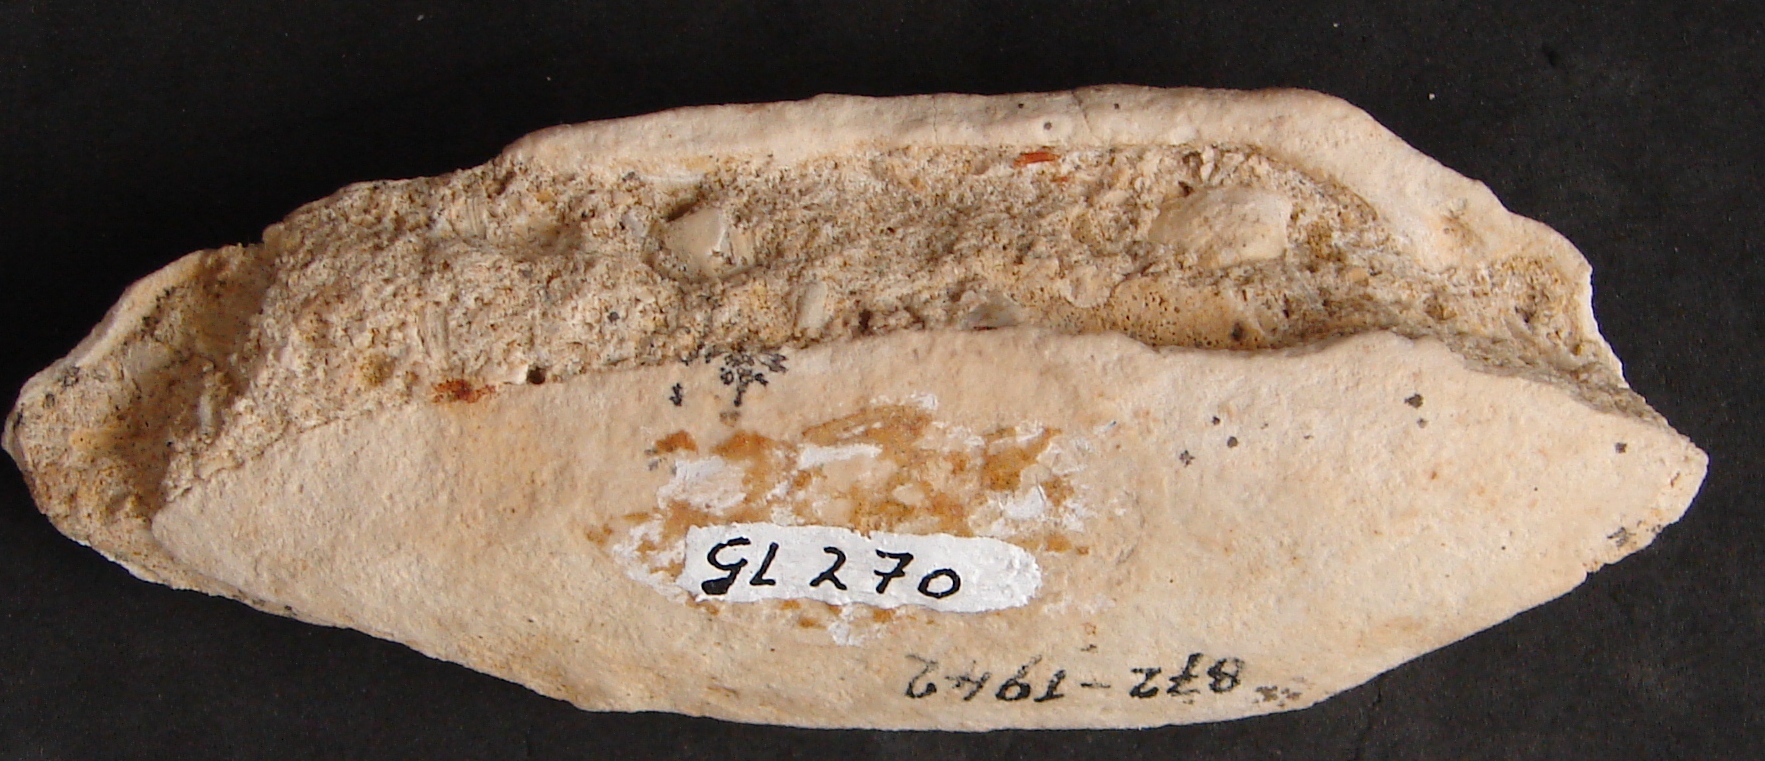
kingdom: Animalia
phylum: Mollusca
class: Bivalvia
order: Carditida
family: Cardiniidae
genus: Cardinia
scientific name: Cardinia
